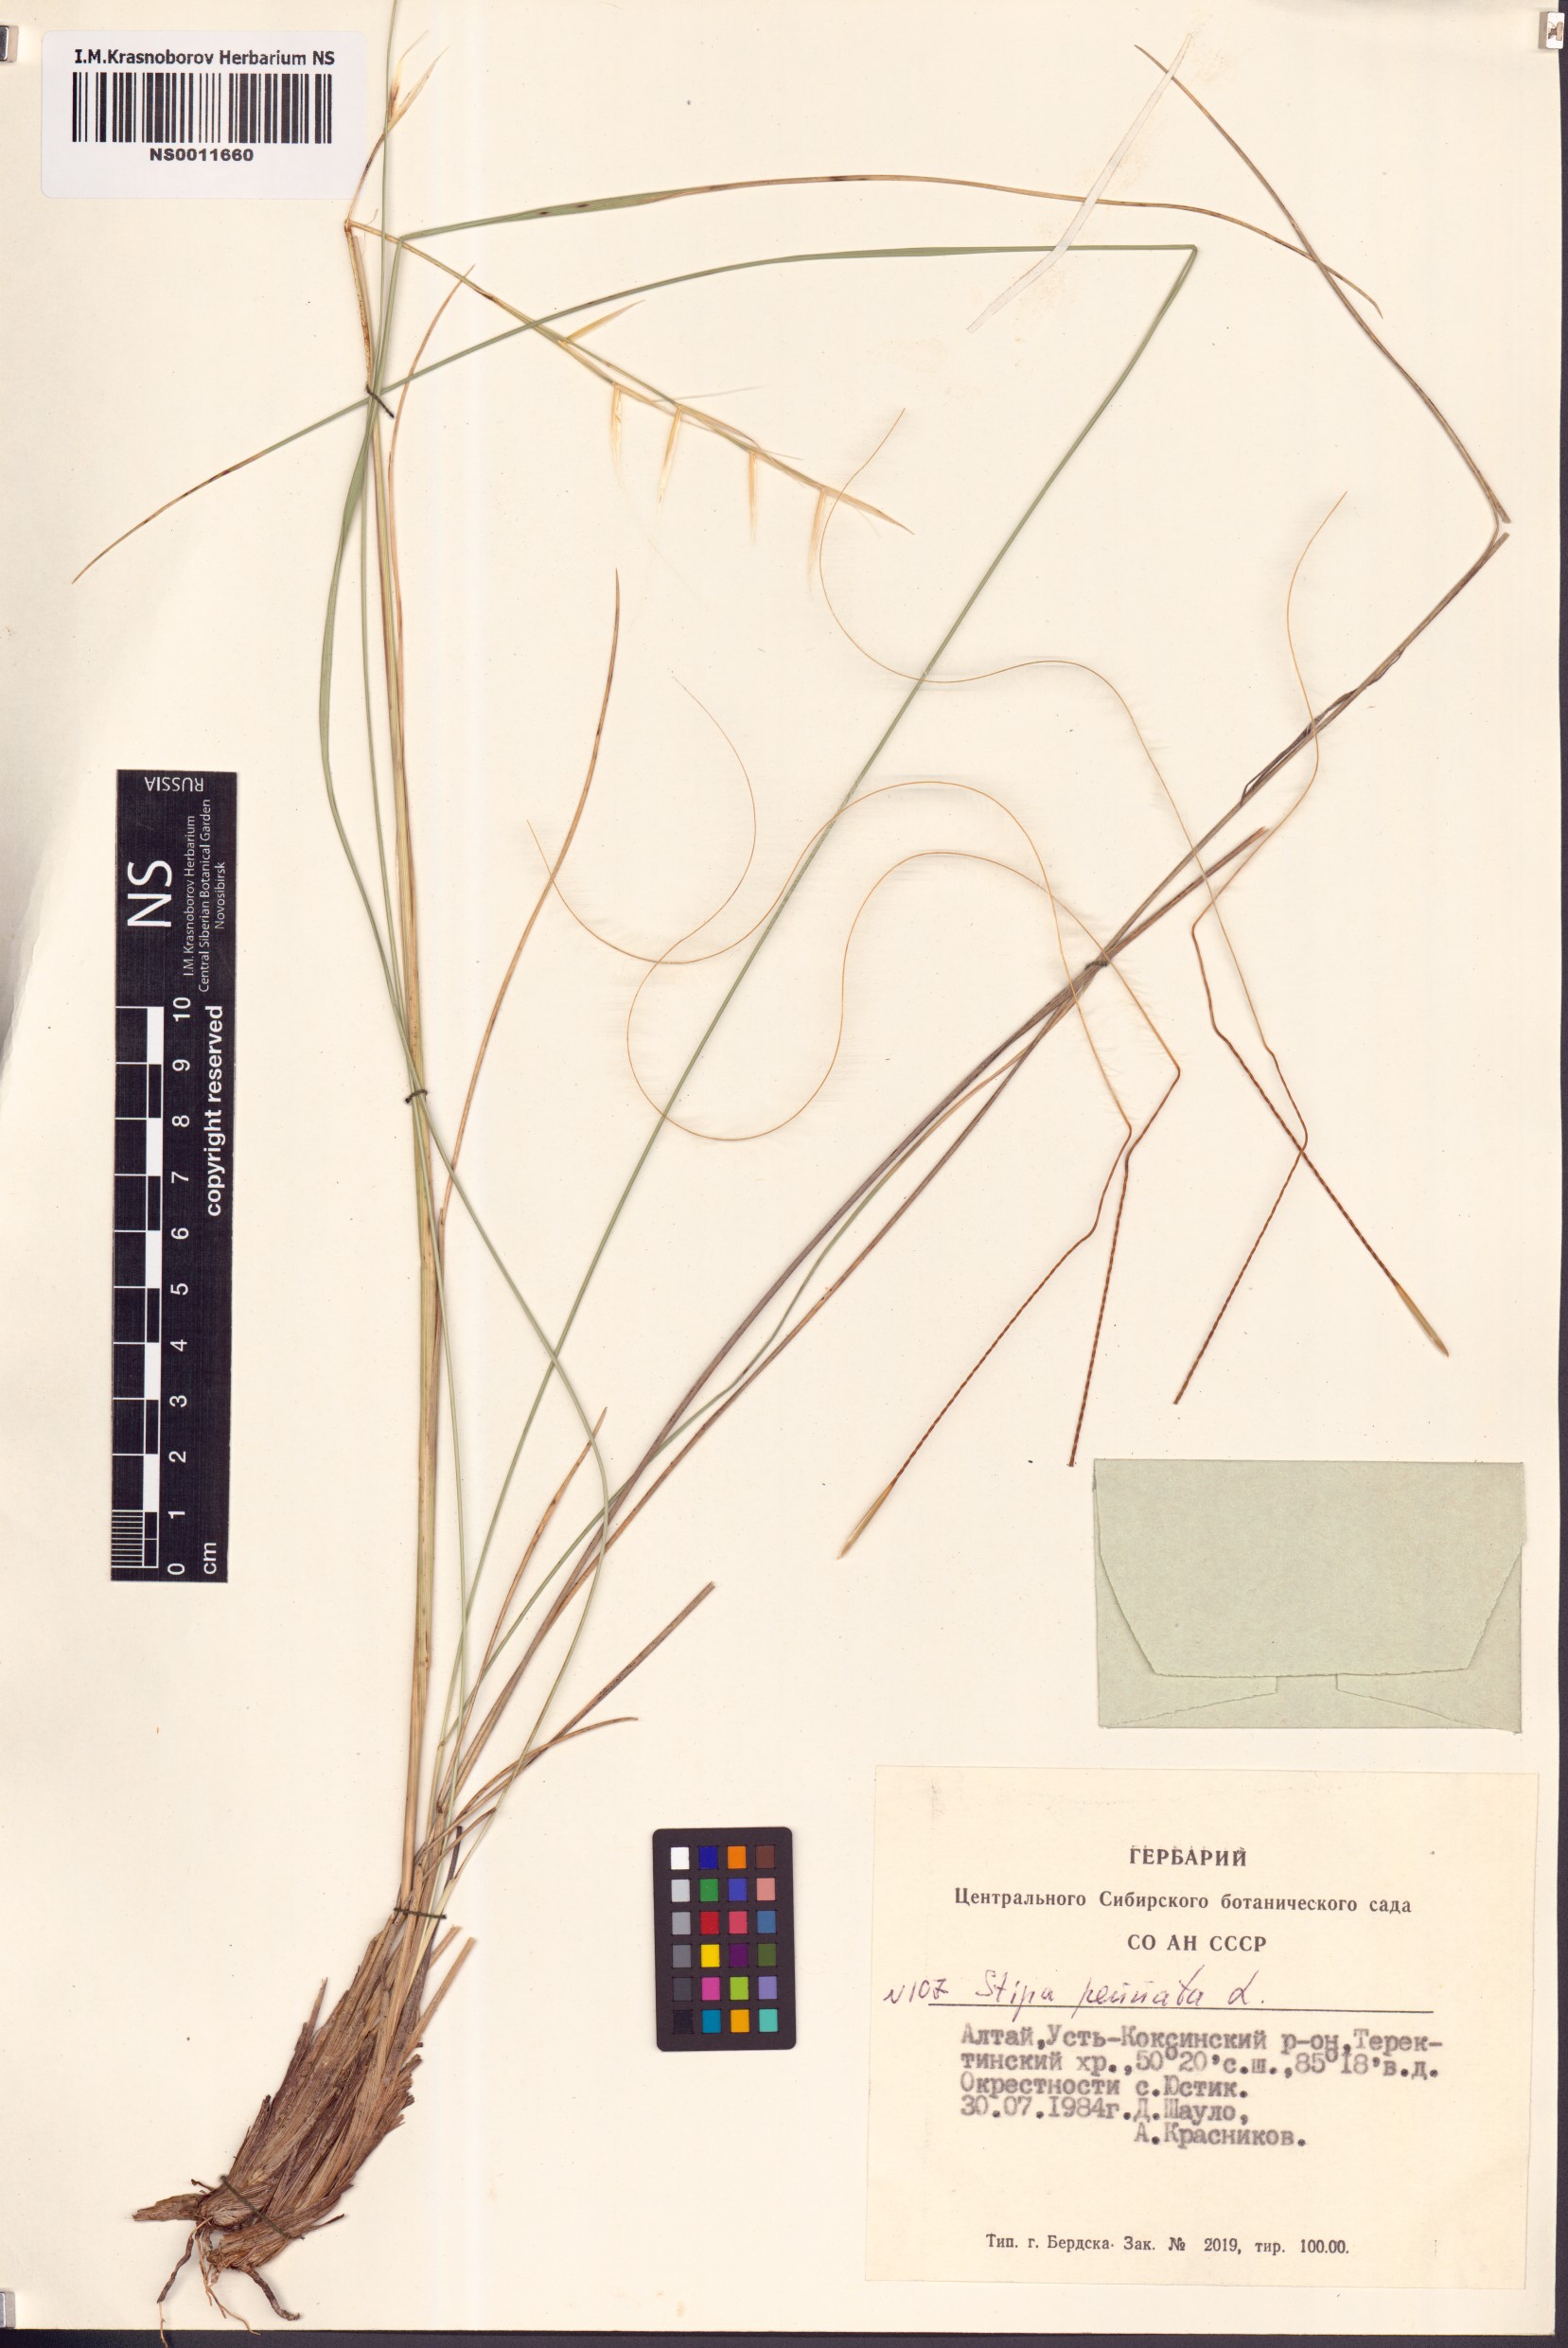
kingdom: Plantae
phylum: Tracheophyta
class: Liliopsida
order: Poales
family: Poaceae
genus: Stipa
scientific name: Stipa pennata
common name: European feather grass
